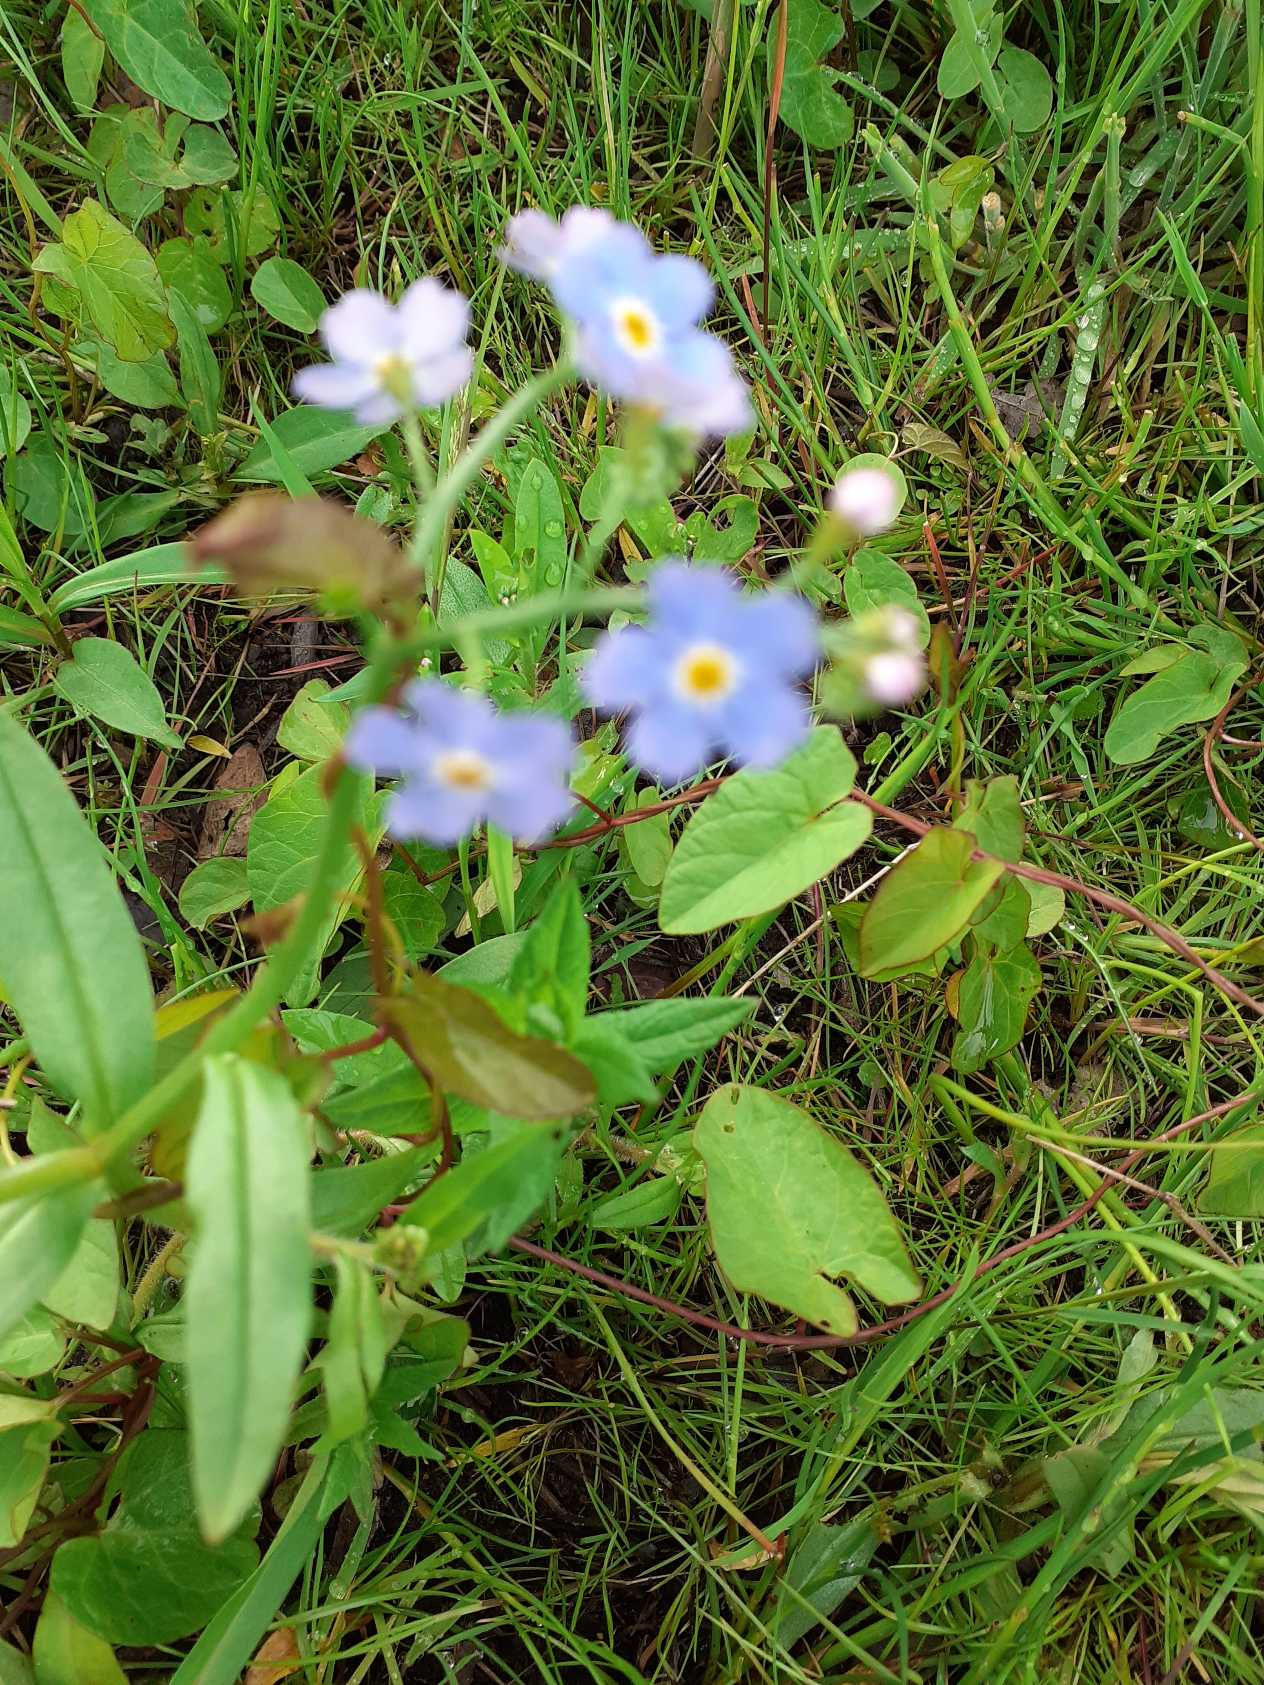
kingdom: Plantae
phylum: Tracheophyta
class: Magnoliopsida
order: Boraginales
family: Boraginaceae
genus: Myosotis
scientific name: Myosotis scorpioides
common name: Eng-forglemmigej
